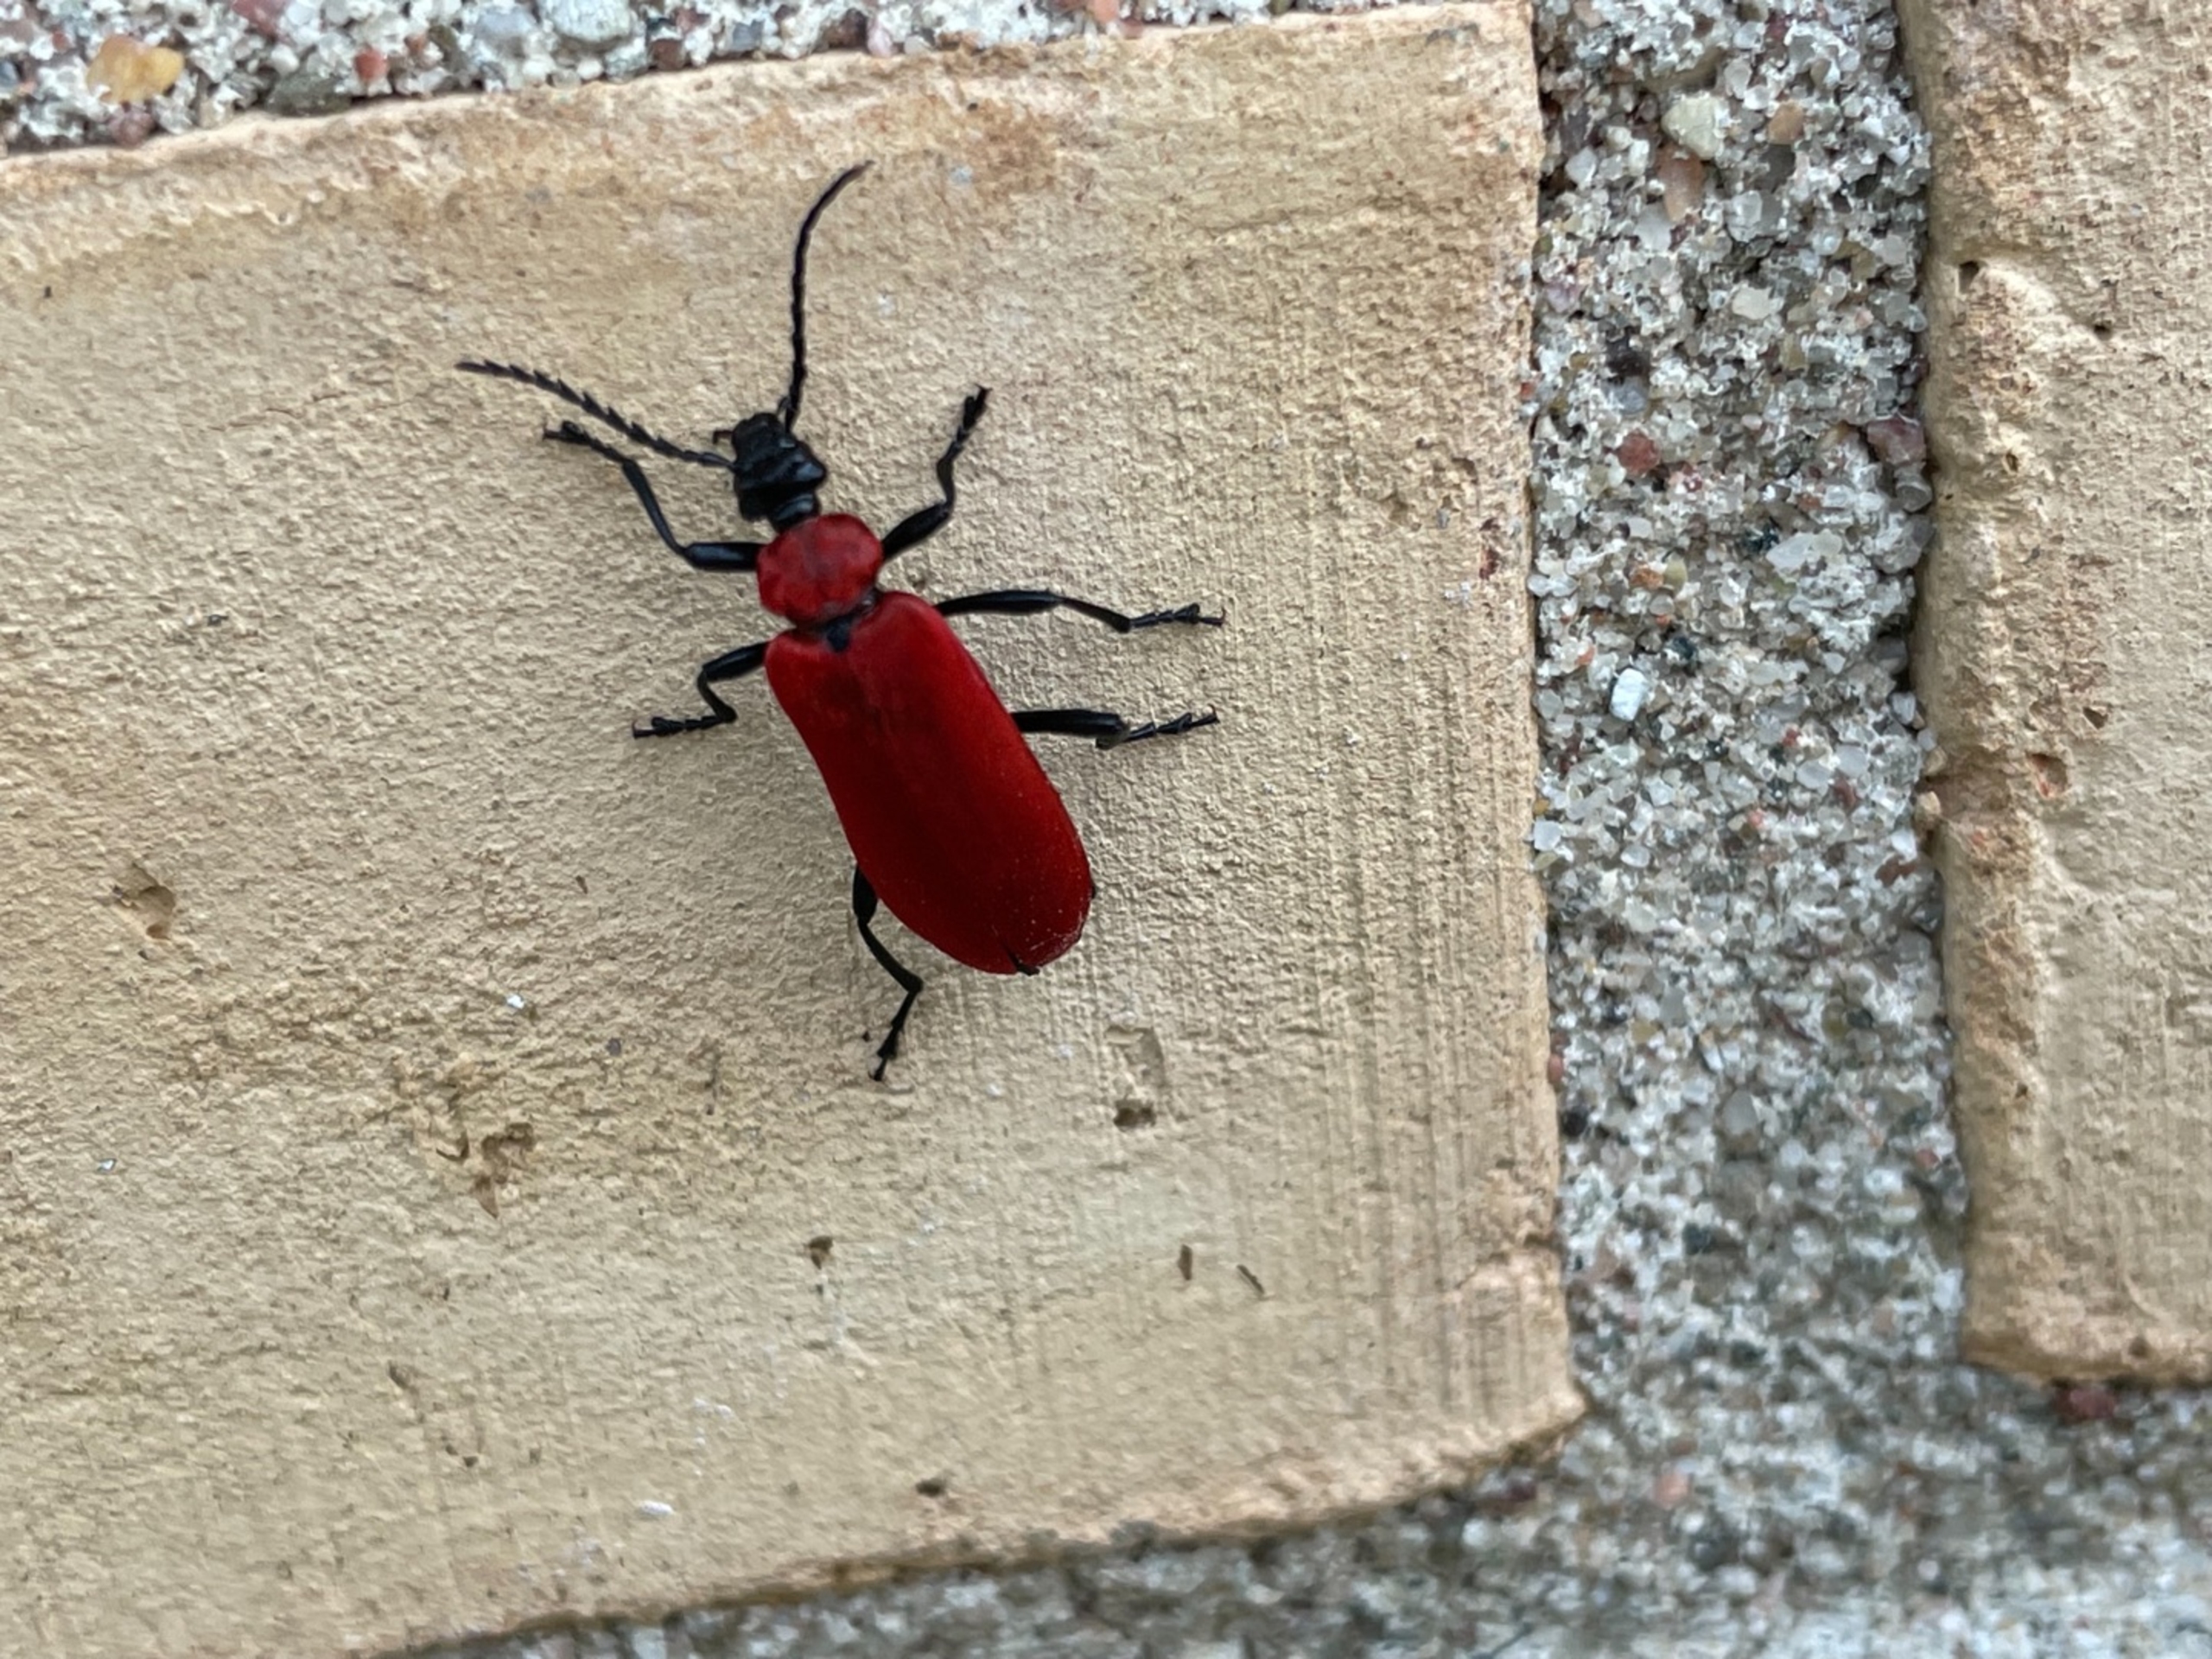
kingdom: Animalia
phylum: Arthropoda
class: Insecta
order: Coleoptera
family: Pyrochroidae
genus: Pyrochroa
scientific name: Pyrochroa coccinea
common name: Sorthovedet kardinalbille
